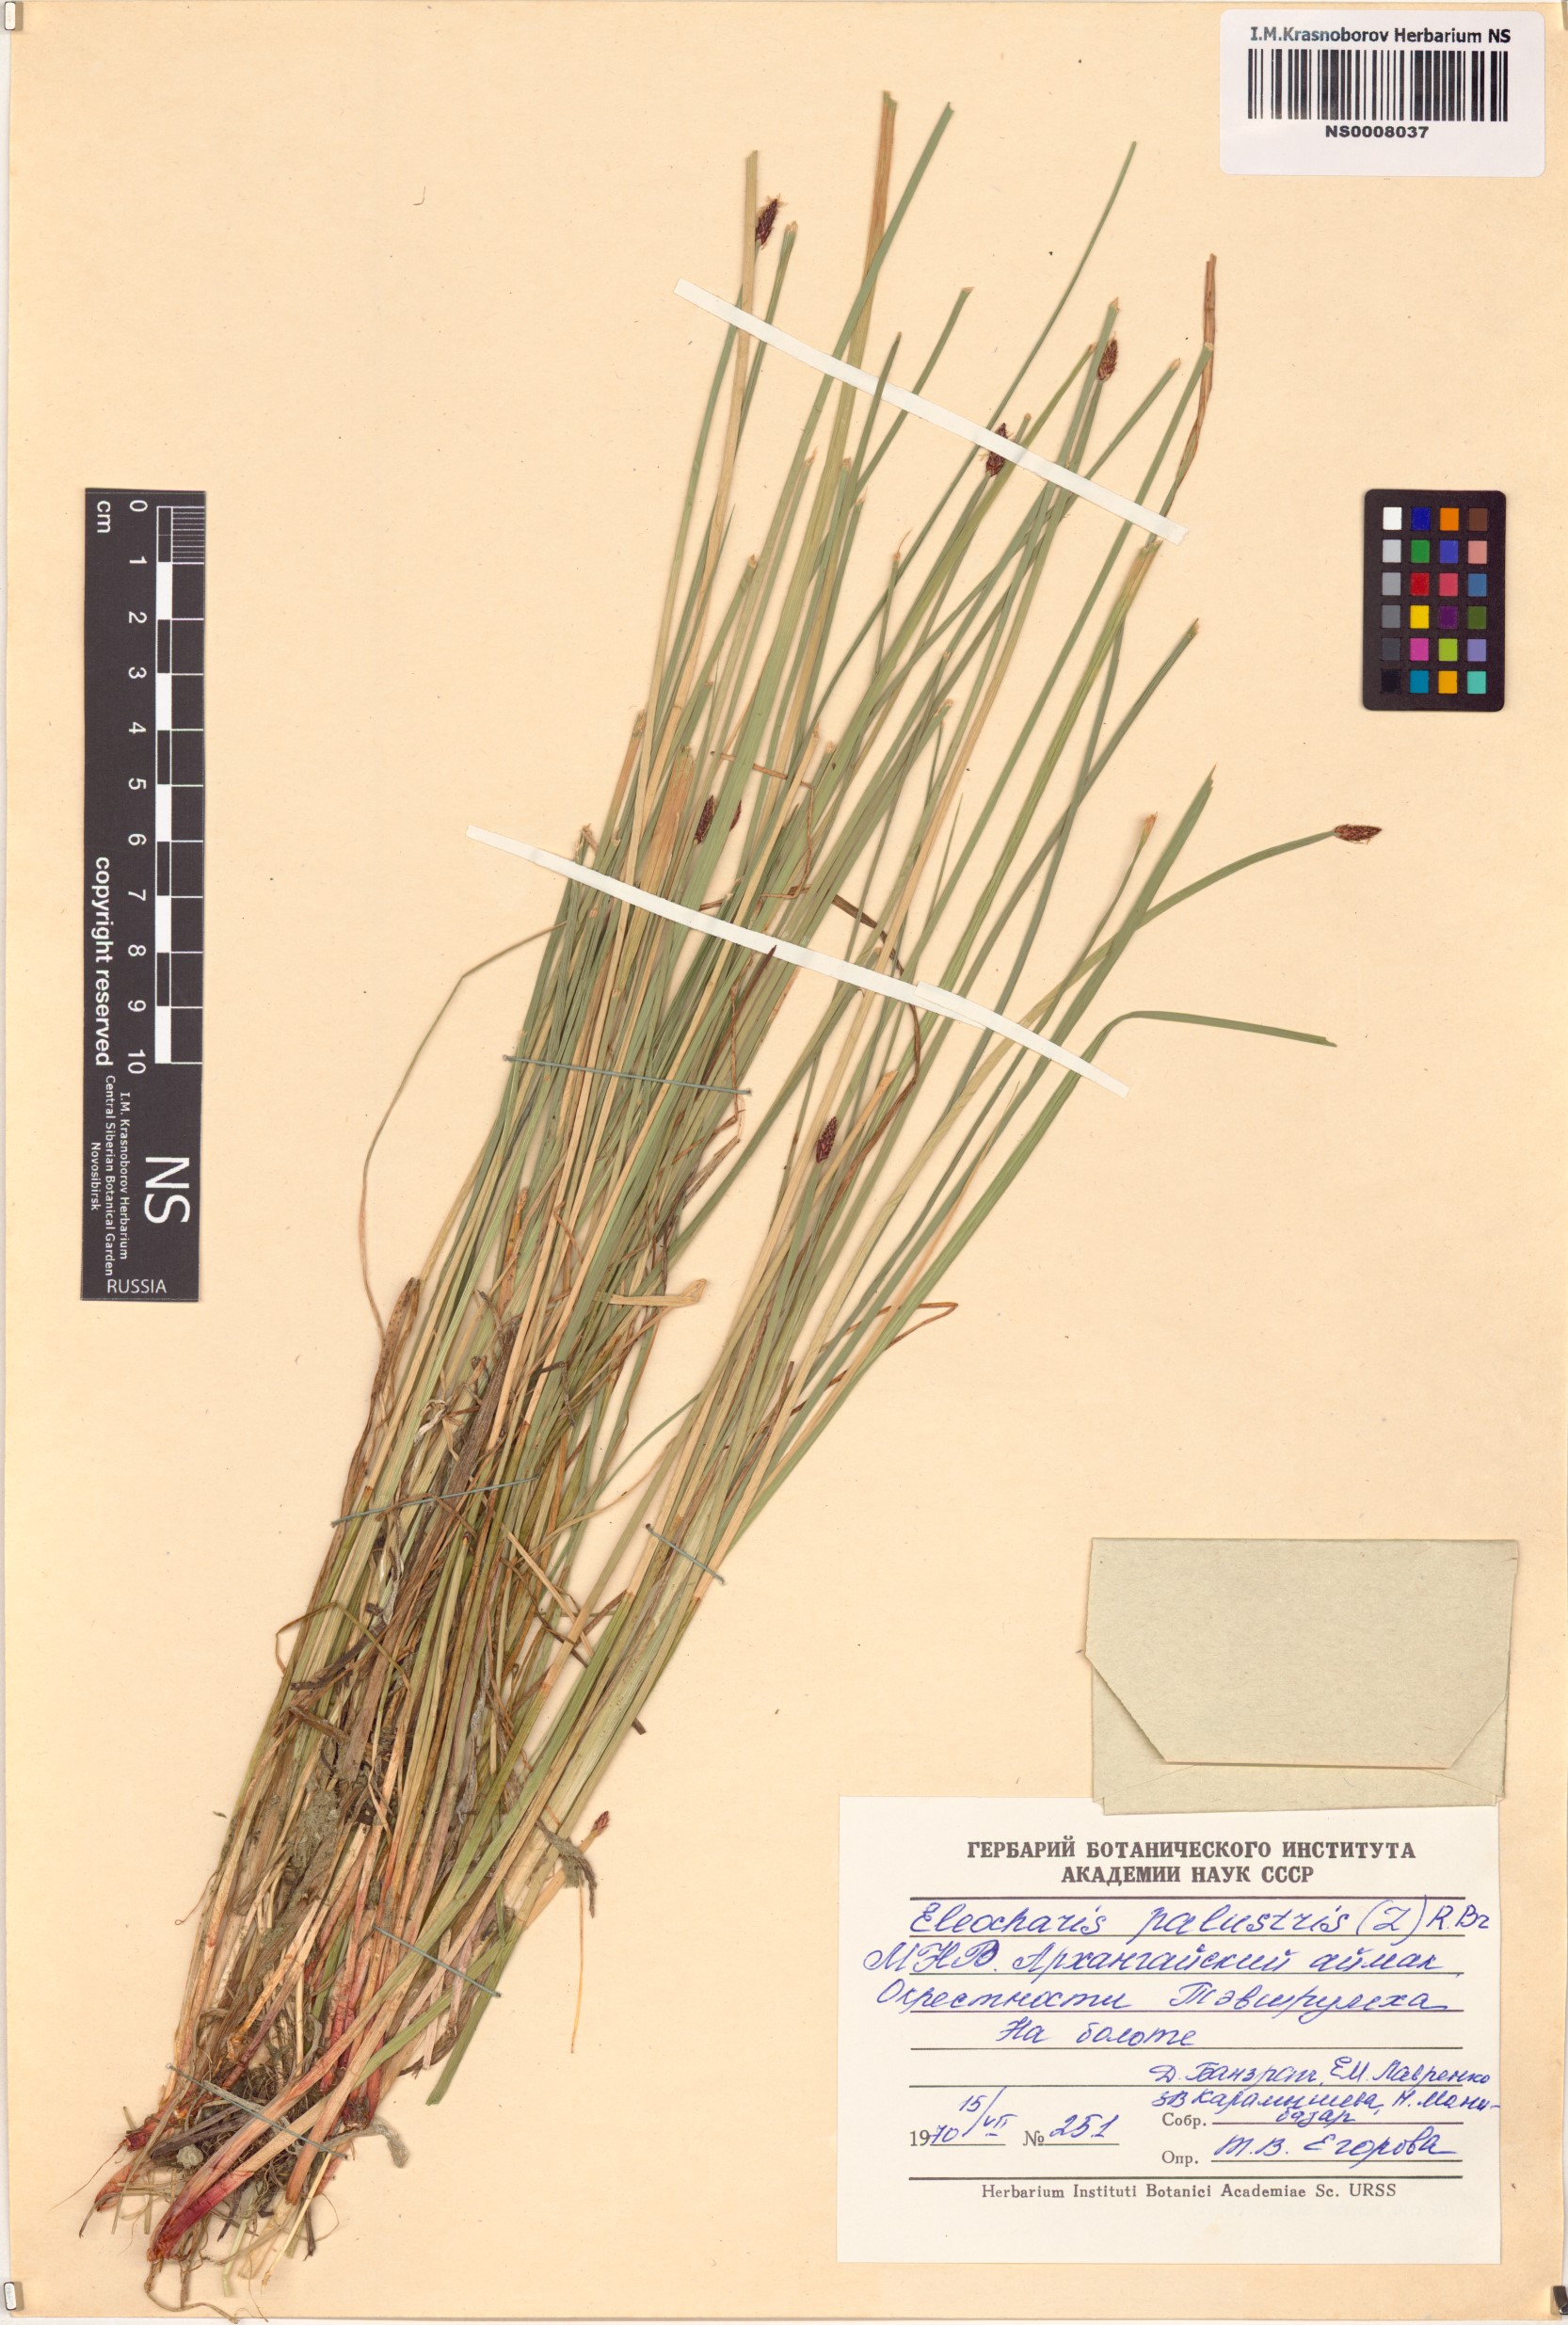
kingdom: Plantae
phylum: Tracheophyta
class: Liliopsida
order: Poales
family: Cyperaceae
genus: Eleocharis
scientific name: Eleocharis palustris
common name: Common spike-rush
